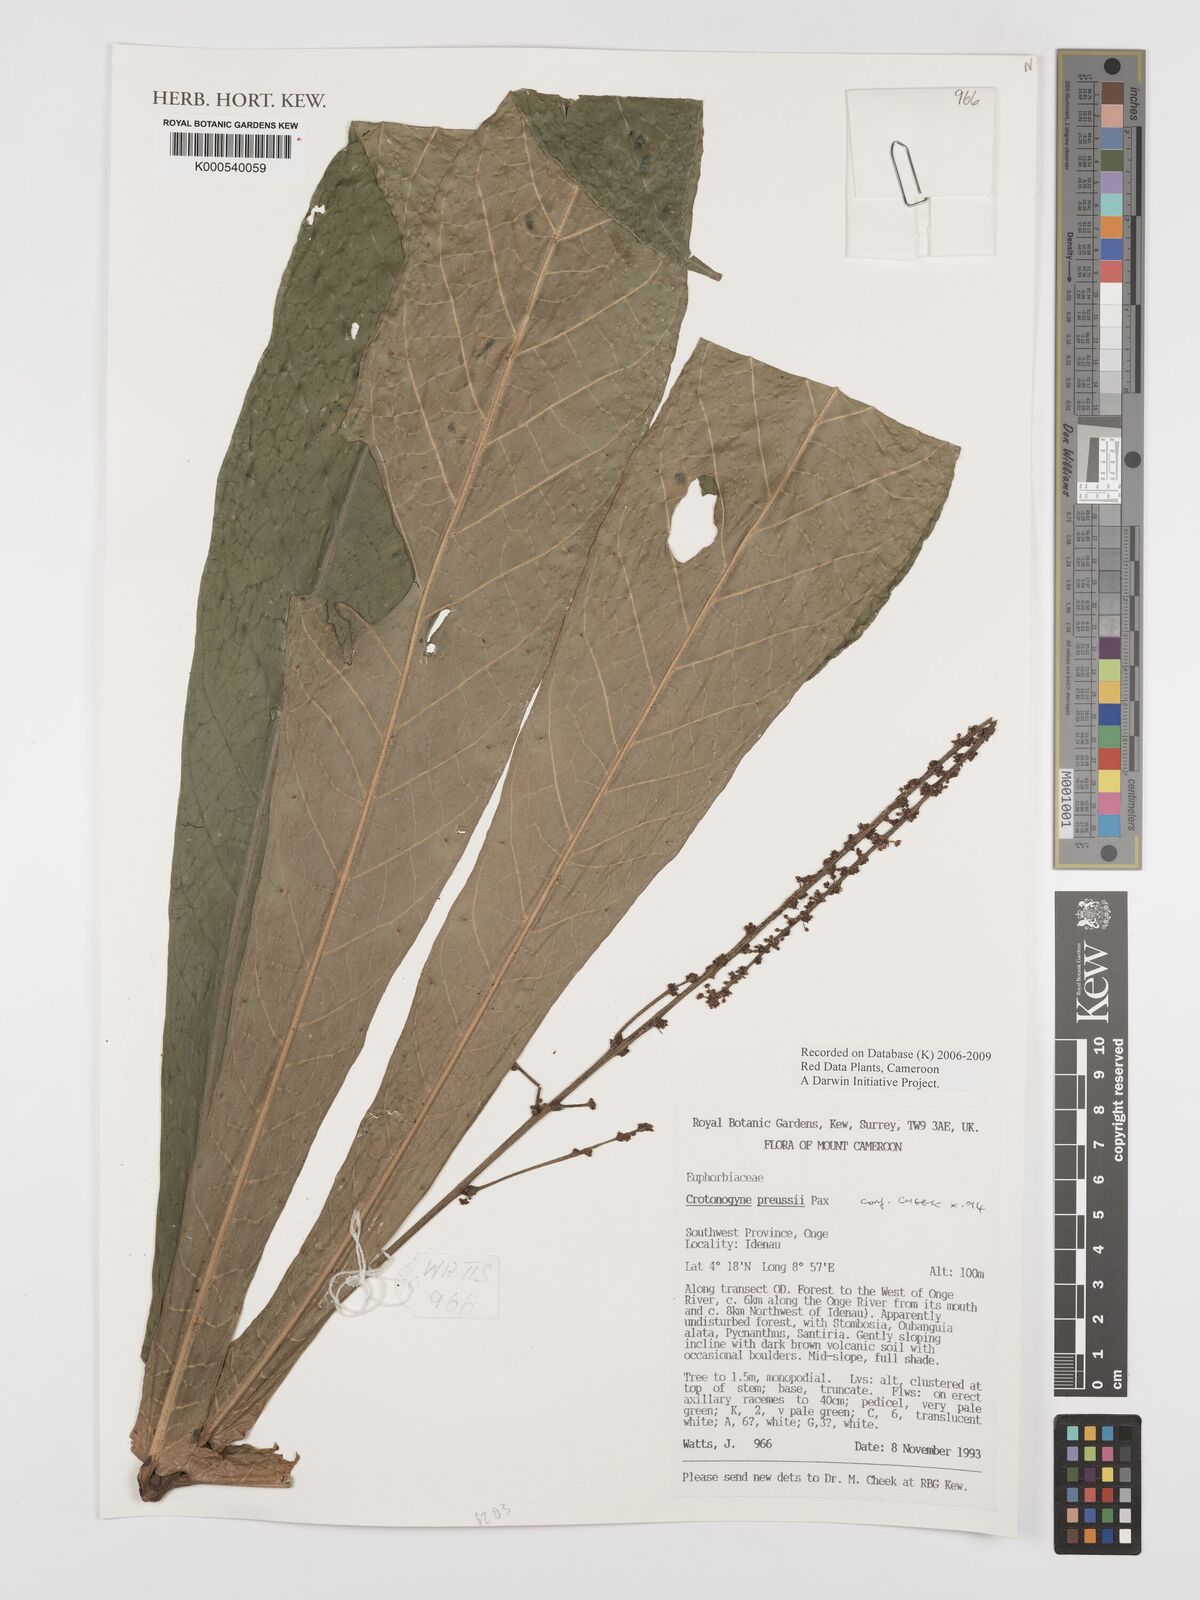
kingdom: Plantae
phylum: Tracheophyta
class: Magnoliopsida
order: Malpighiales
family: Euphorbiaceae
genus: Crotonogyne
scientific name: Crotonogyne preussii
